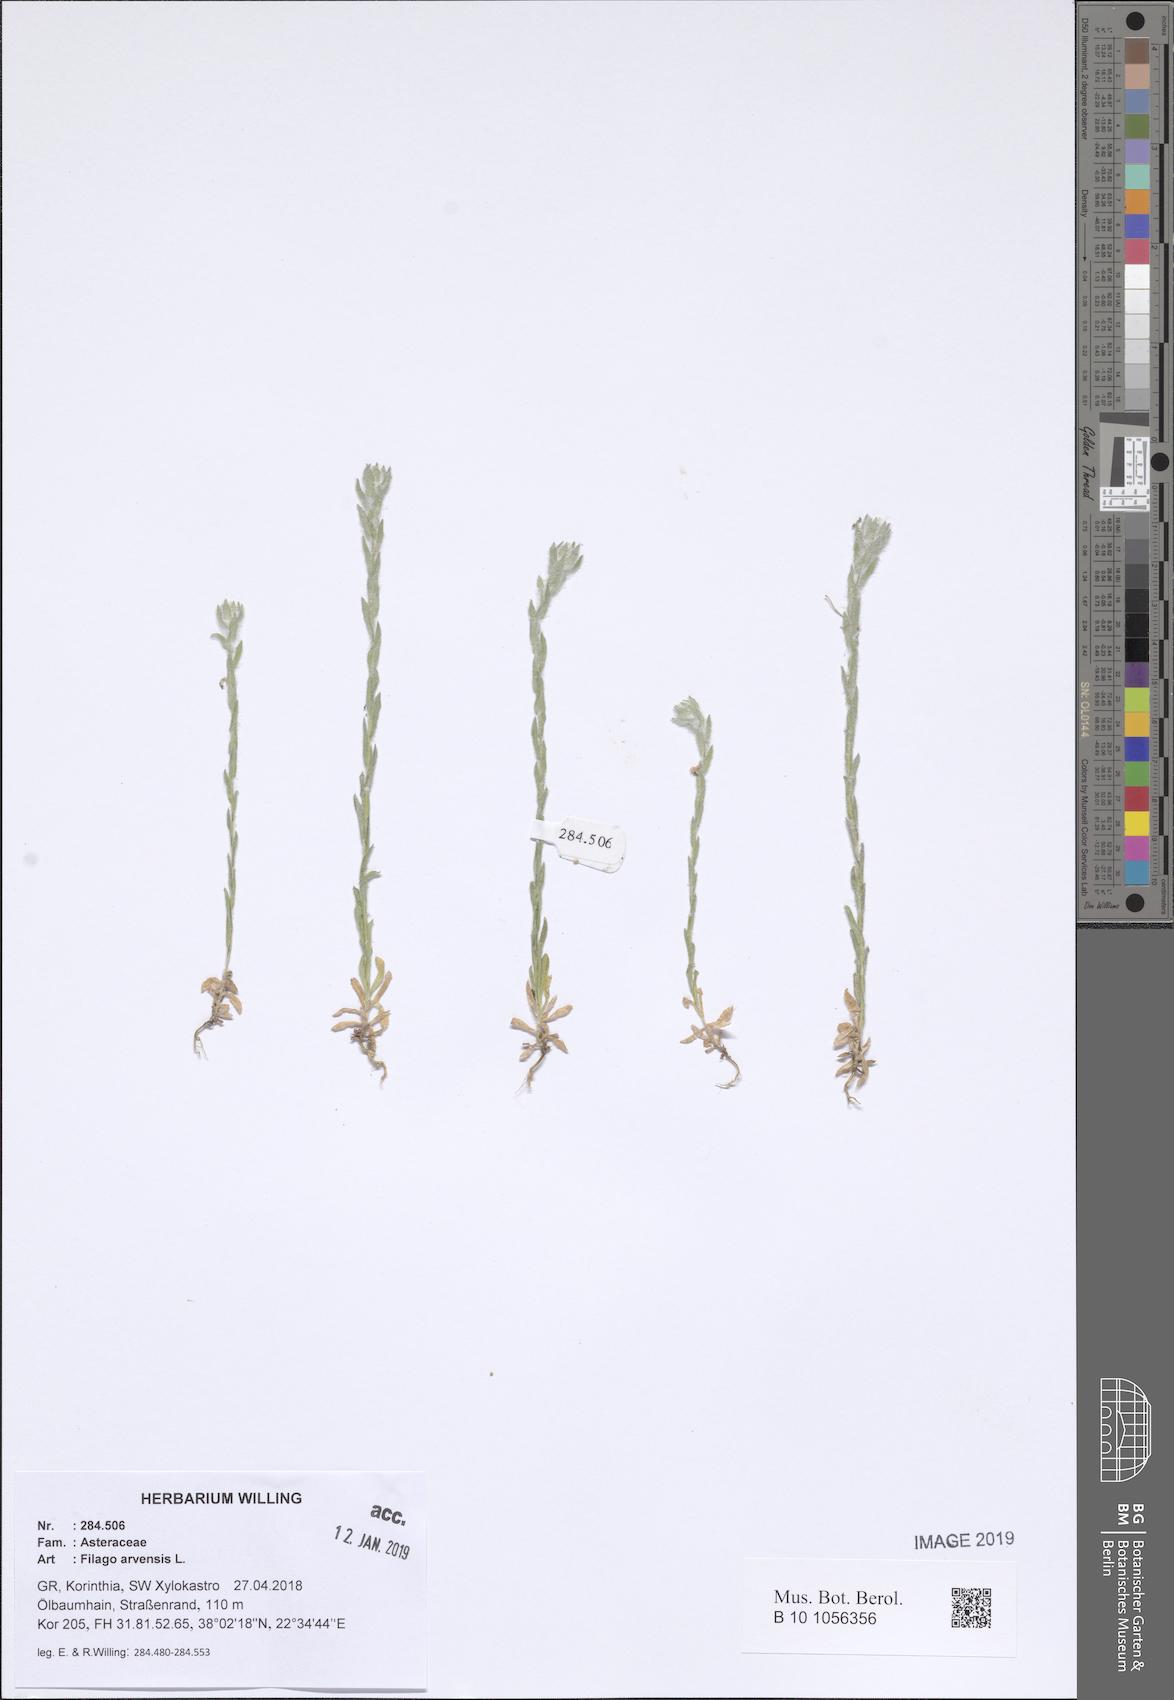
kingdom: Plantae
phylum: Tracheophyta
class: Magnoliopsida
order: Asterales
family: Asteraceae
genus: Filago
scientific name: Filago arvensis
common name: Field cudweed
